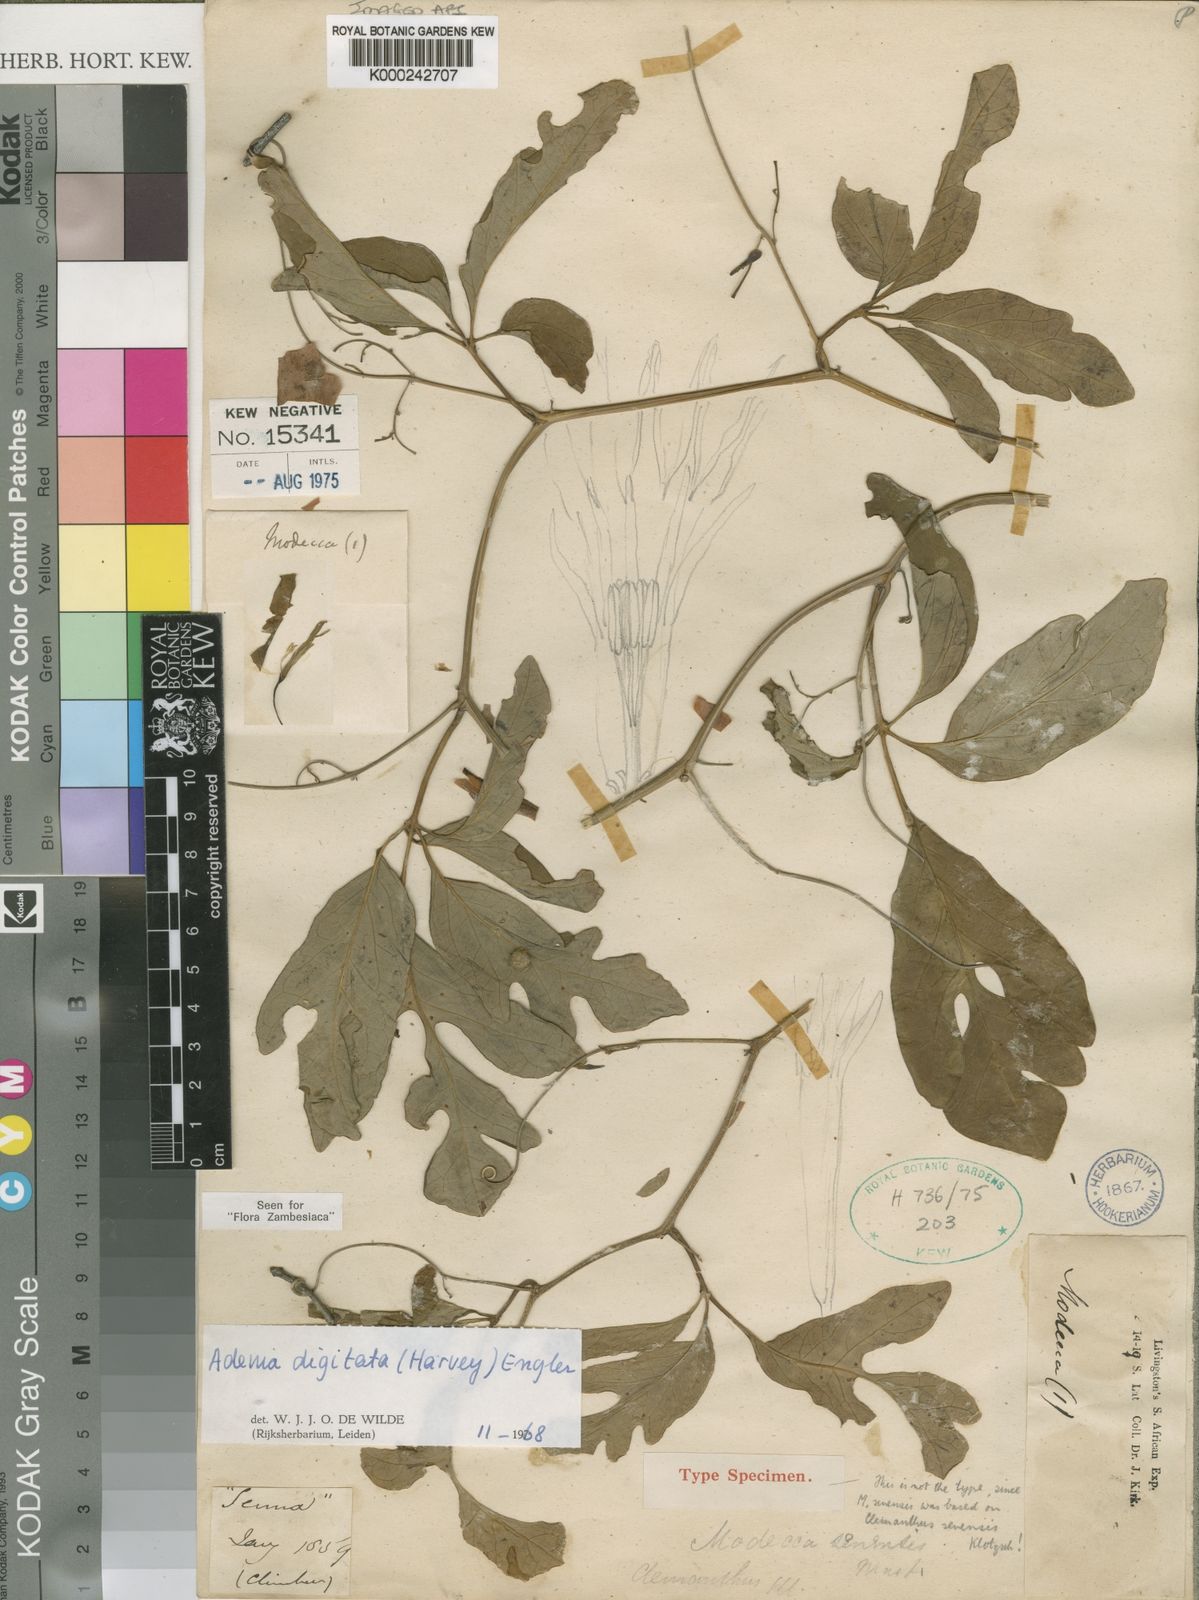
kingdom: Plantae
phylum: Tracheophyta
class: Magnoliopsida
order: Malpighiales
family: Passifloraceae
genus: Adenia
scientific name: Adenia digitata
